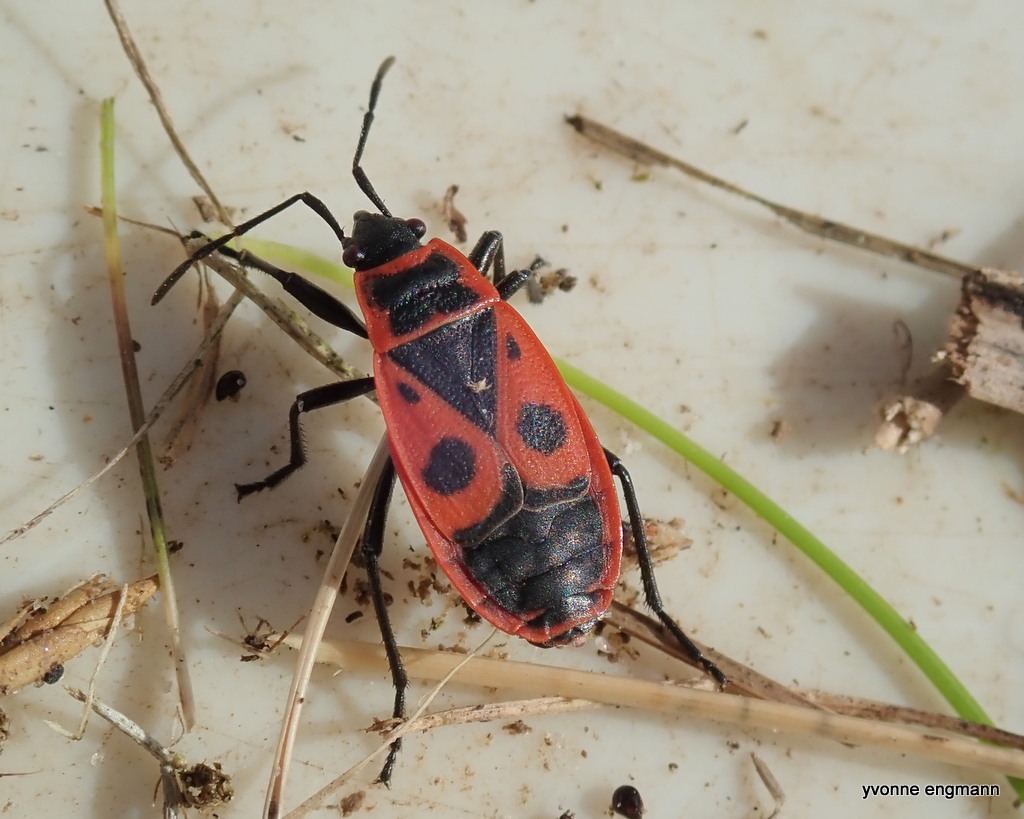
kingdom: Animalia
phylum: Arthropoda
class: Insecta
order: Hemiptera
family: Pyrrhocoridae
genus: Pyrrhocoris
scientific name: Pyrrhocoris apterus
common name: Ildtæge
